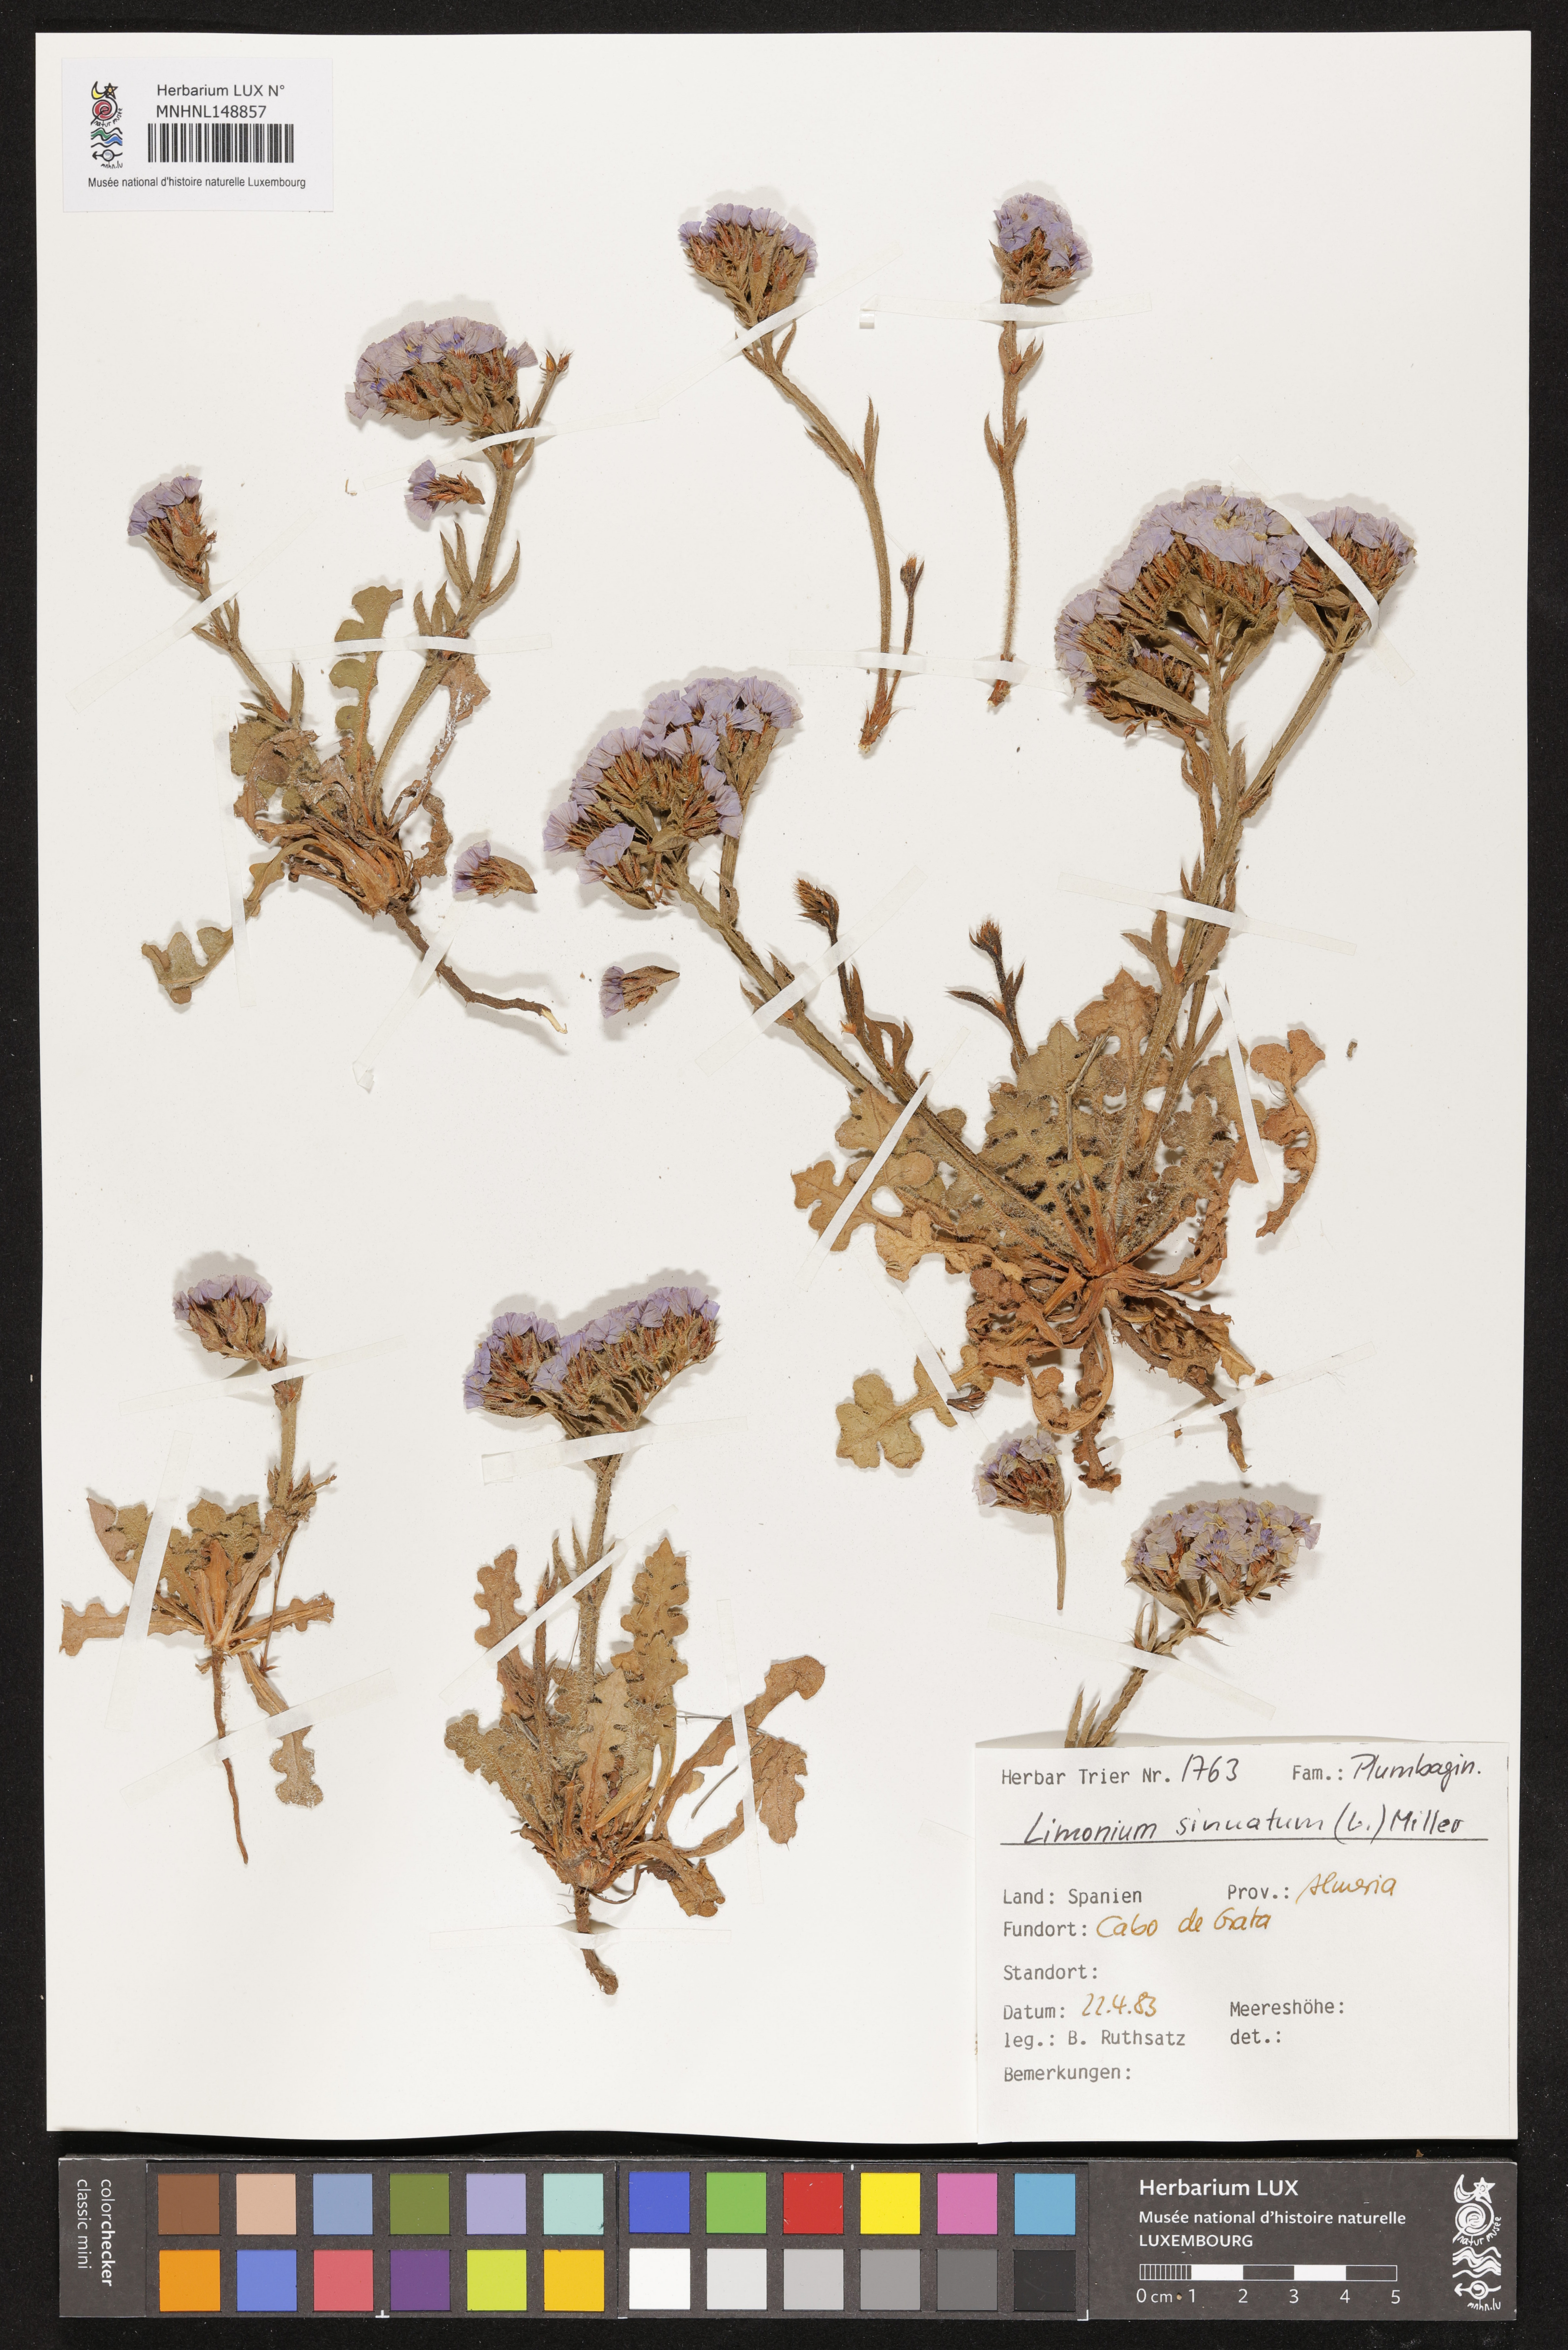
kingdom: Plantae
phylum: Tracheophyta
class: Magnoliopsida
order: Caryophyllales
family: Plumbaginaceae
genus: Limonium
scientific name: Limonium sinuatum
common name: Statice
